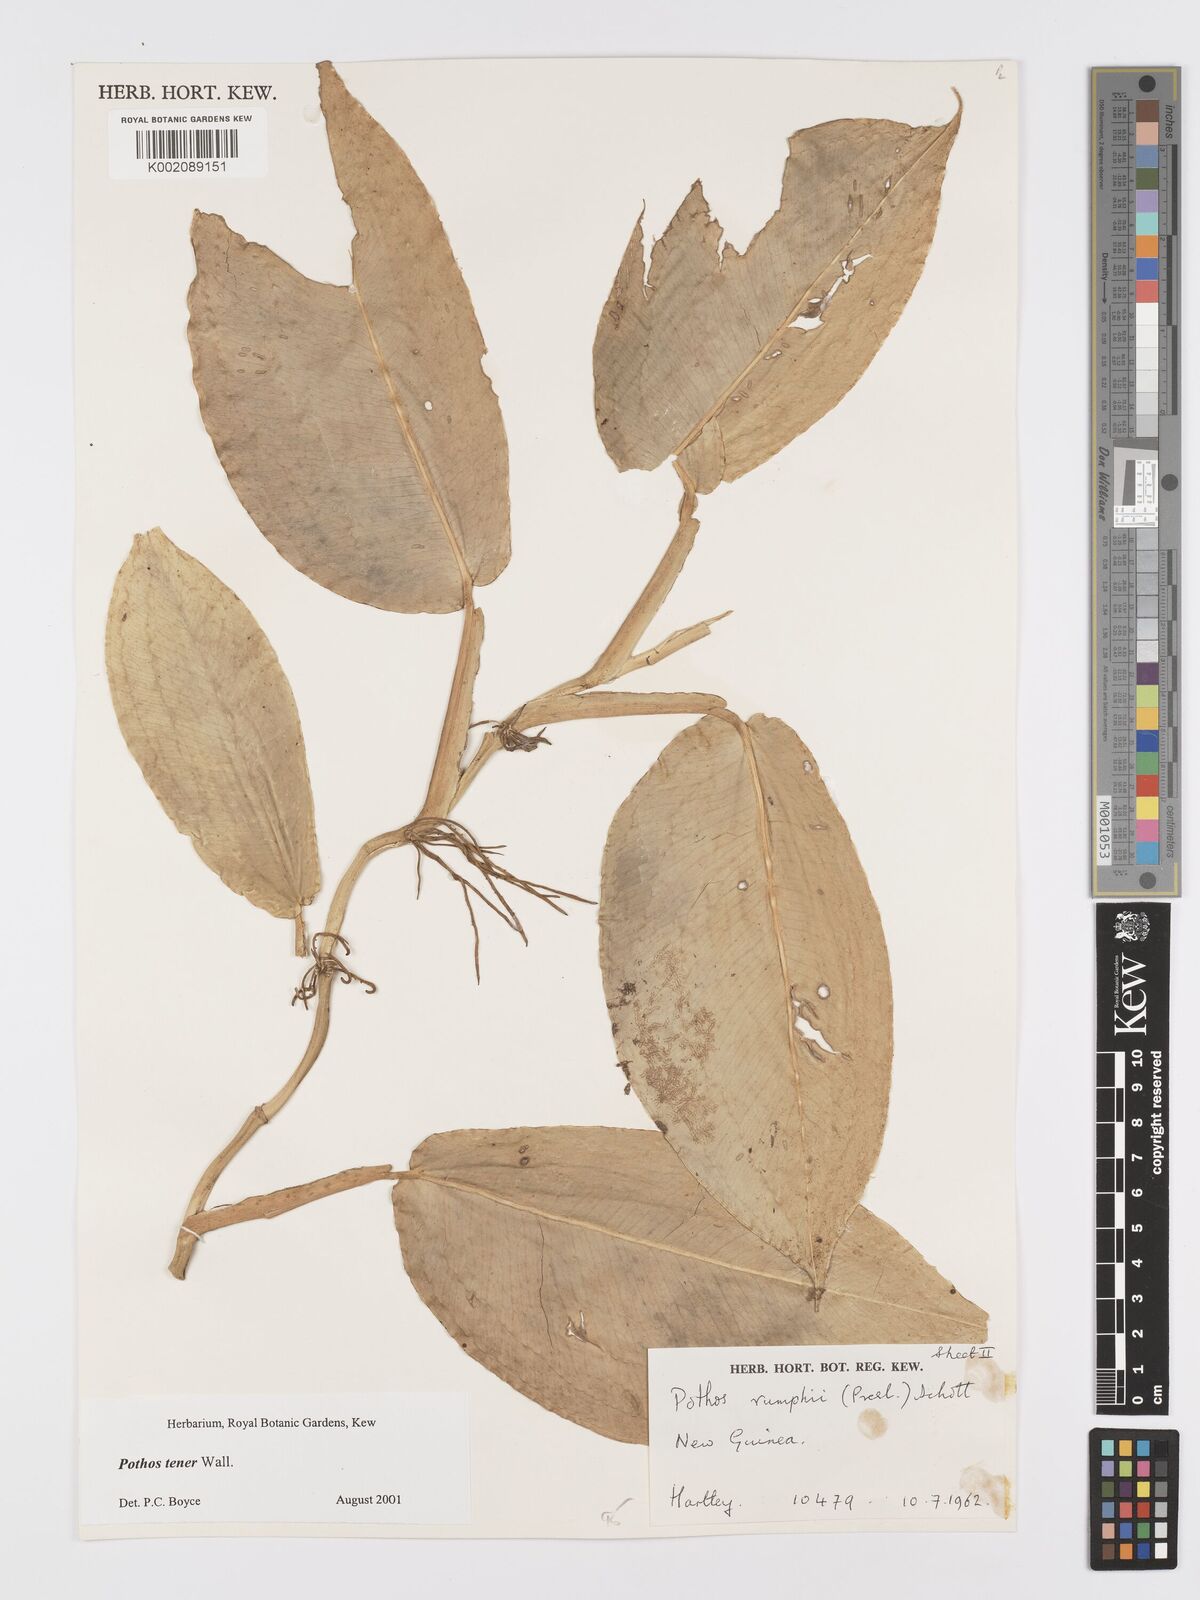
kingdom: Plantae
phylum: Tracheophyta
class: Liliopsida
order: Alismatales
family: Araceae
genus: Pothos
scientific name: Pothos tener
